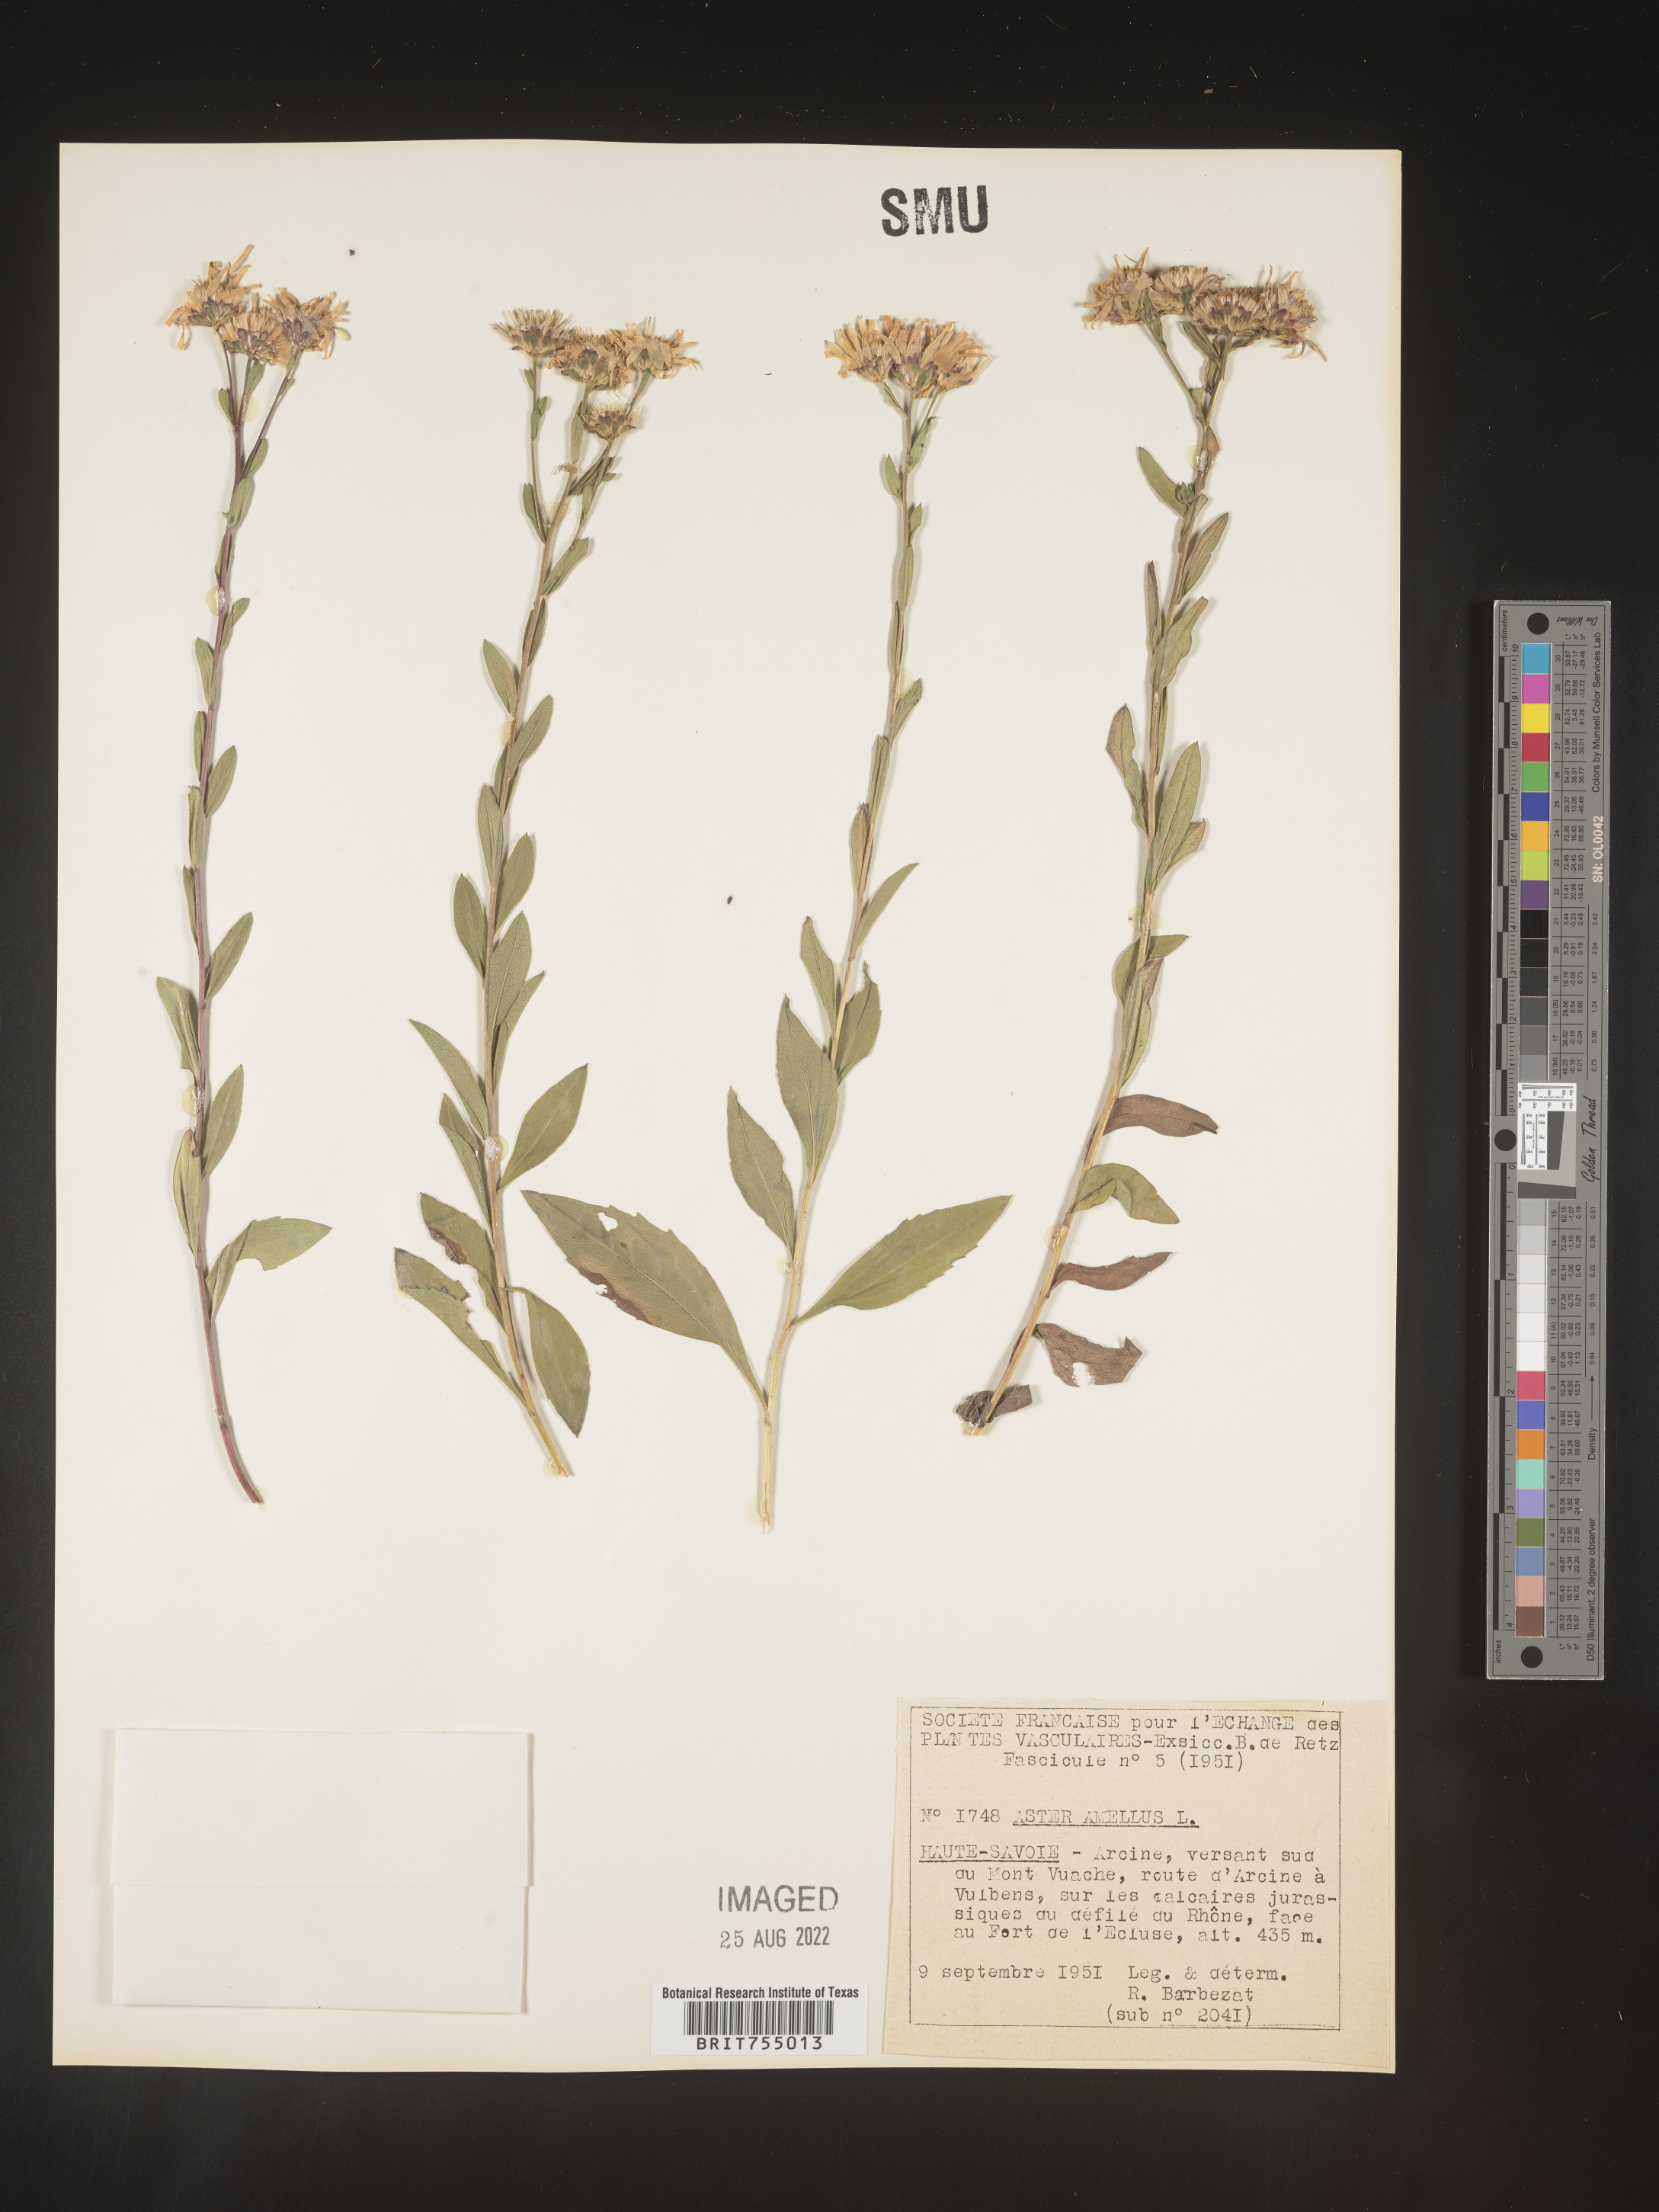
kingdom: Plantae
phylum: Tracheophyta
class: Magnoliopsida
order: Asterales
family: Asteraceae
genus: Symphyotrichum
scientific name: Symphyotrichum
